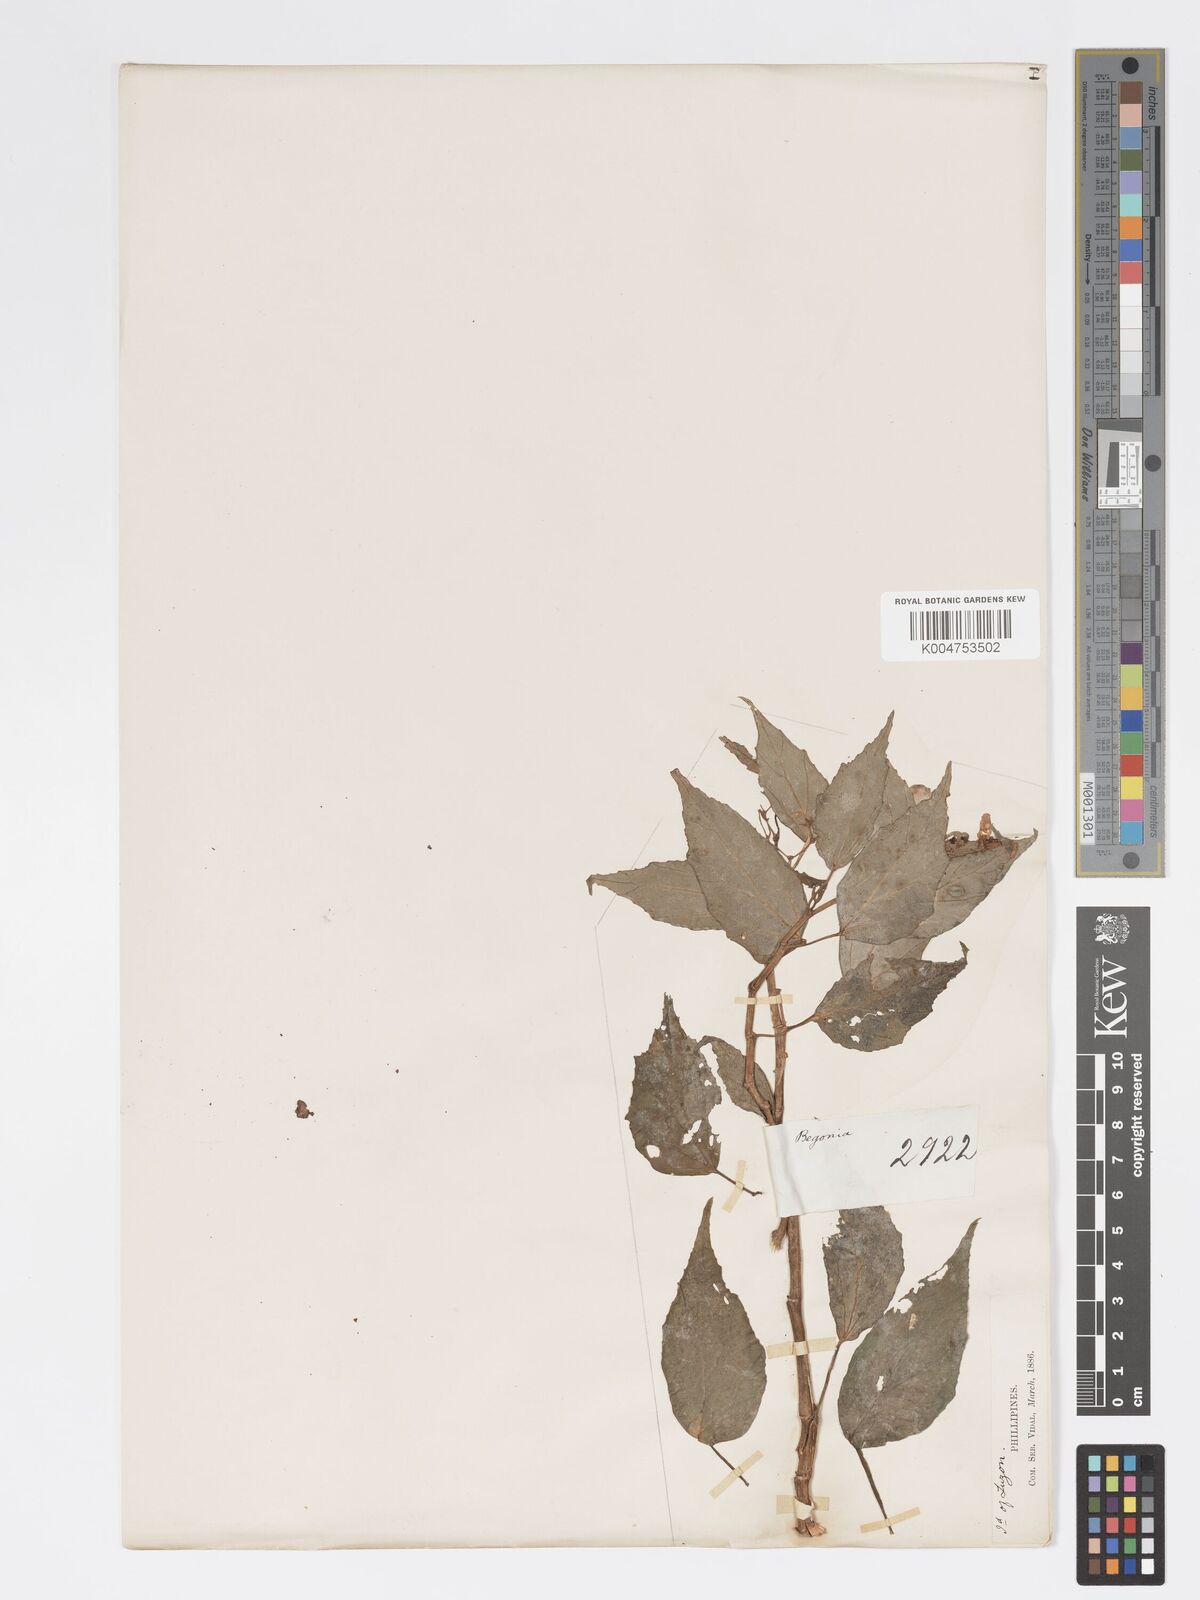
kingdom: Plantae
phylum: Tracheophyta
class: Magnoliopsida
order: Cucurbitales
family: Begoniaceae
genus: Begonia
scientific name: Begonia
